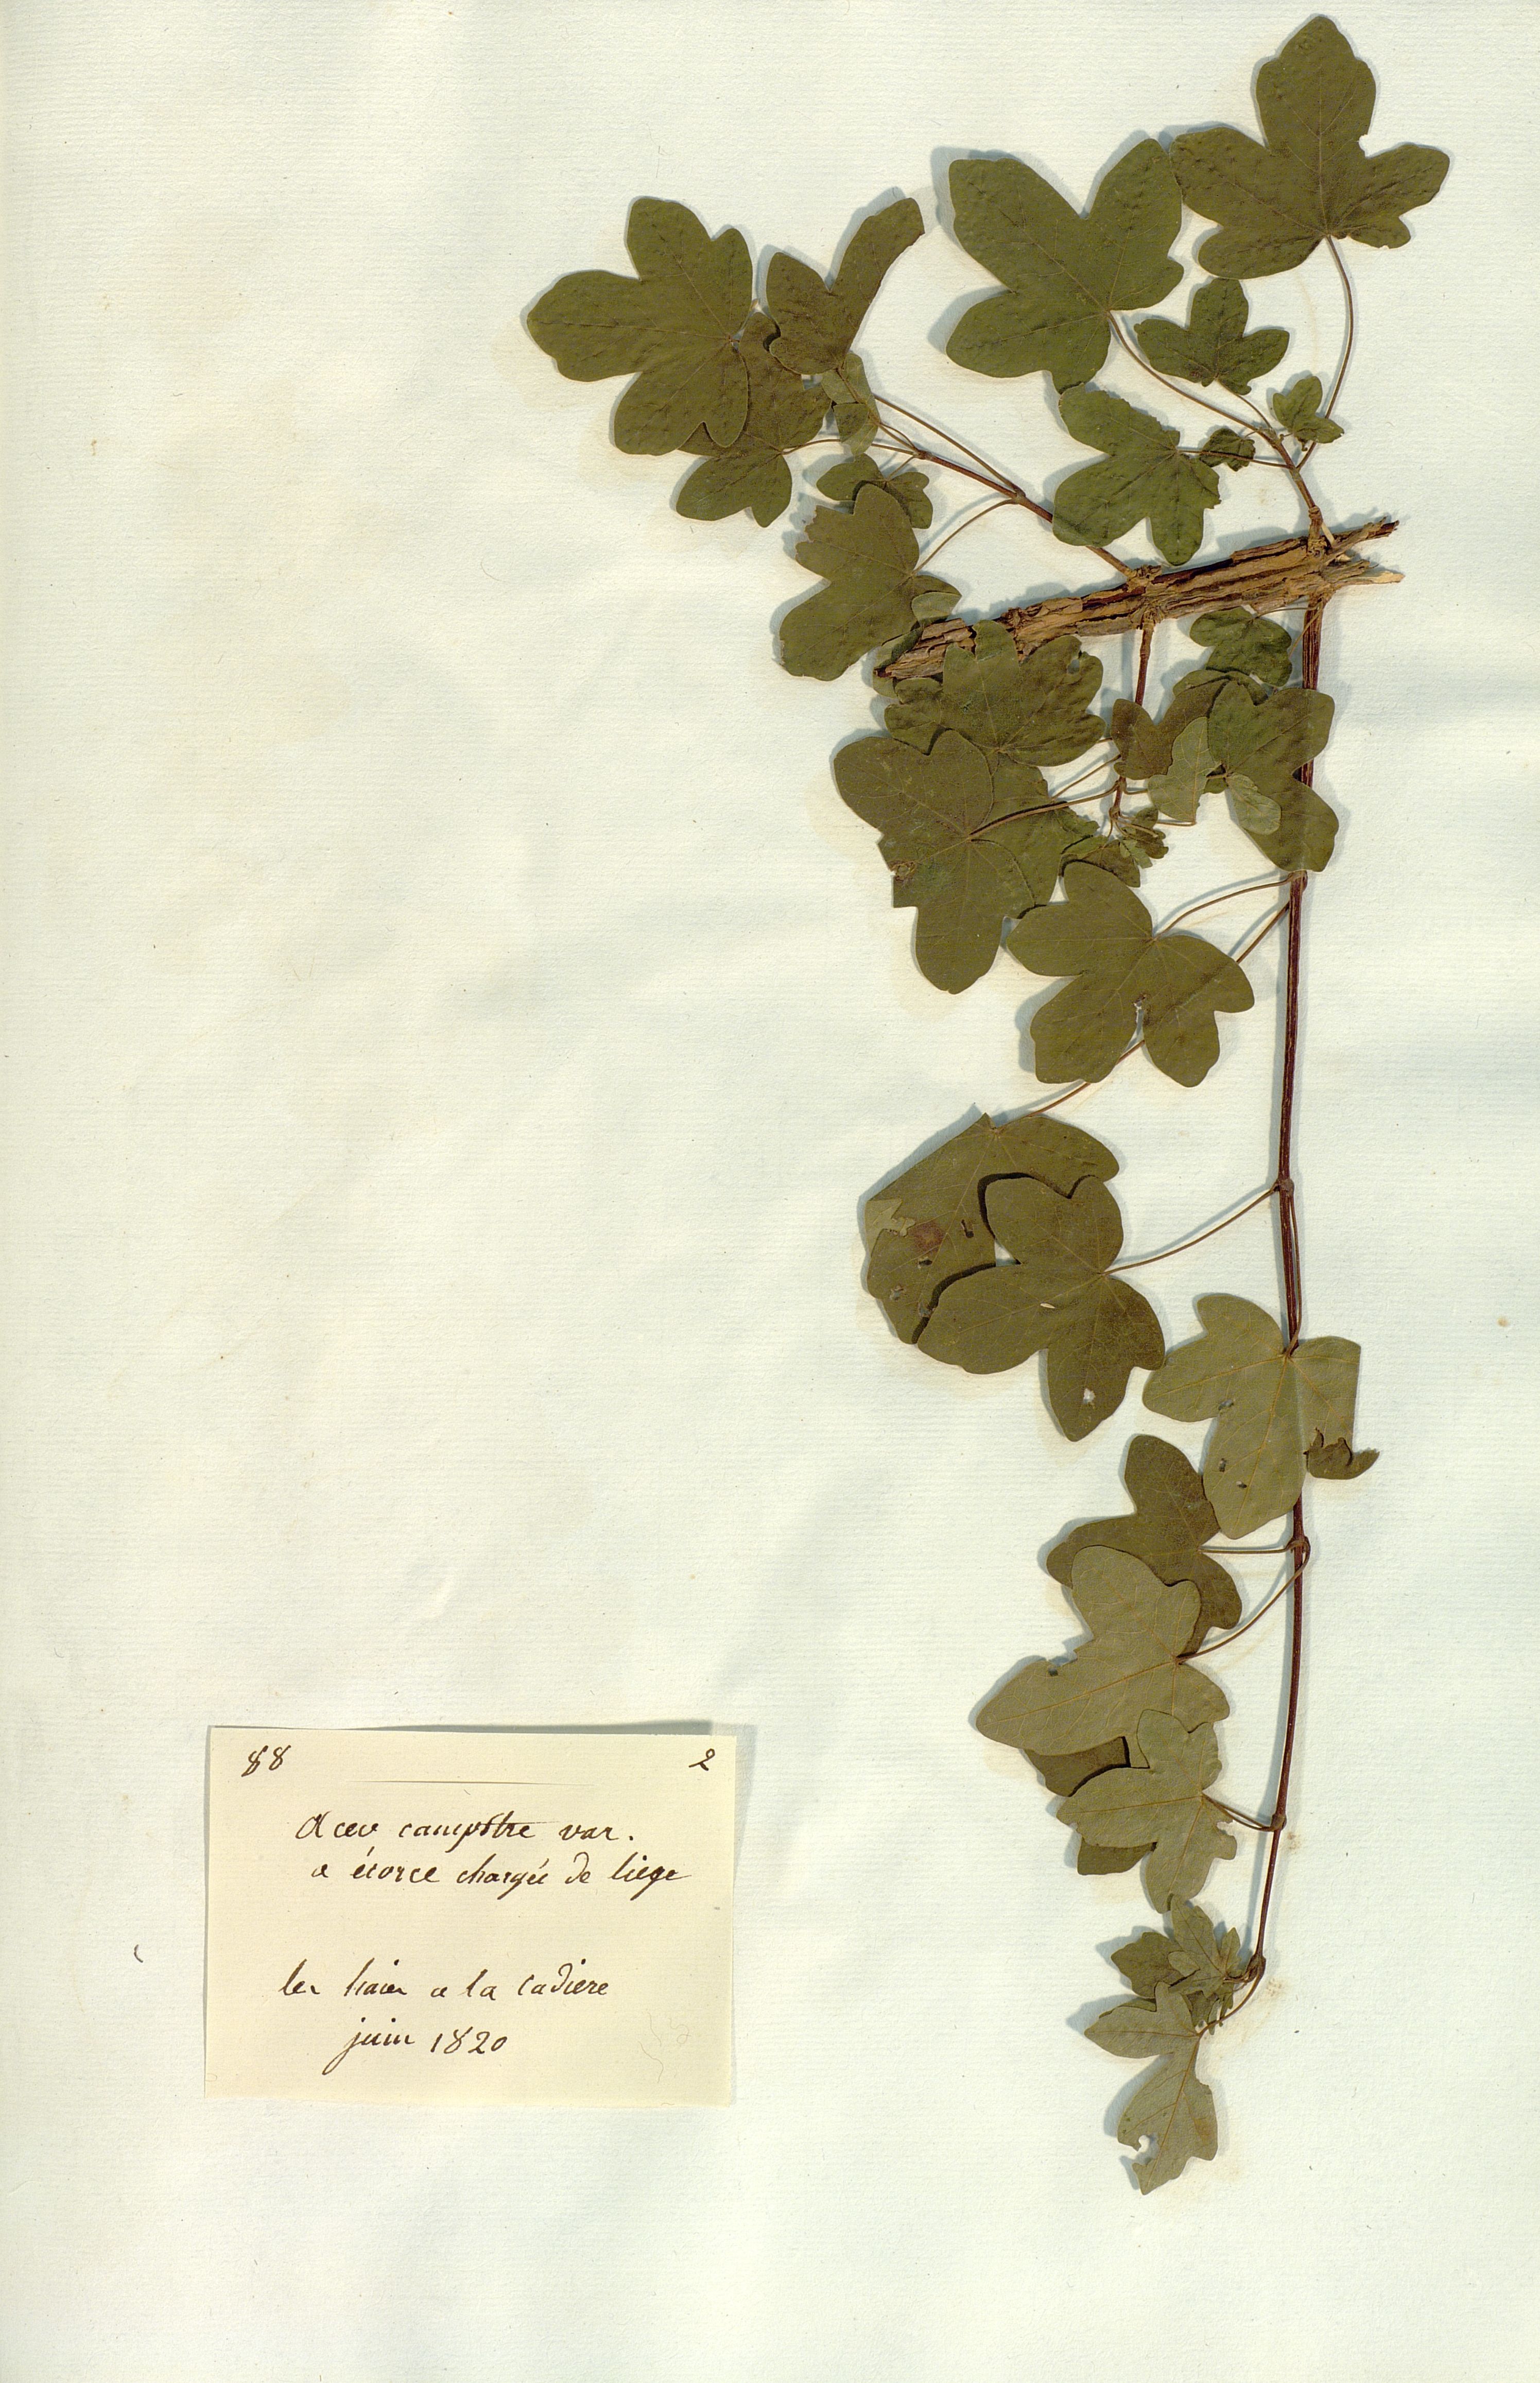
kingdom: Plantae
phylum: Tracheophyta
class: Magnoliopsida
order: Sapindales
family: Sapindaceae
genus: Acer
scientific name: Acer campestre
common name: Field maple
